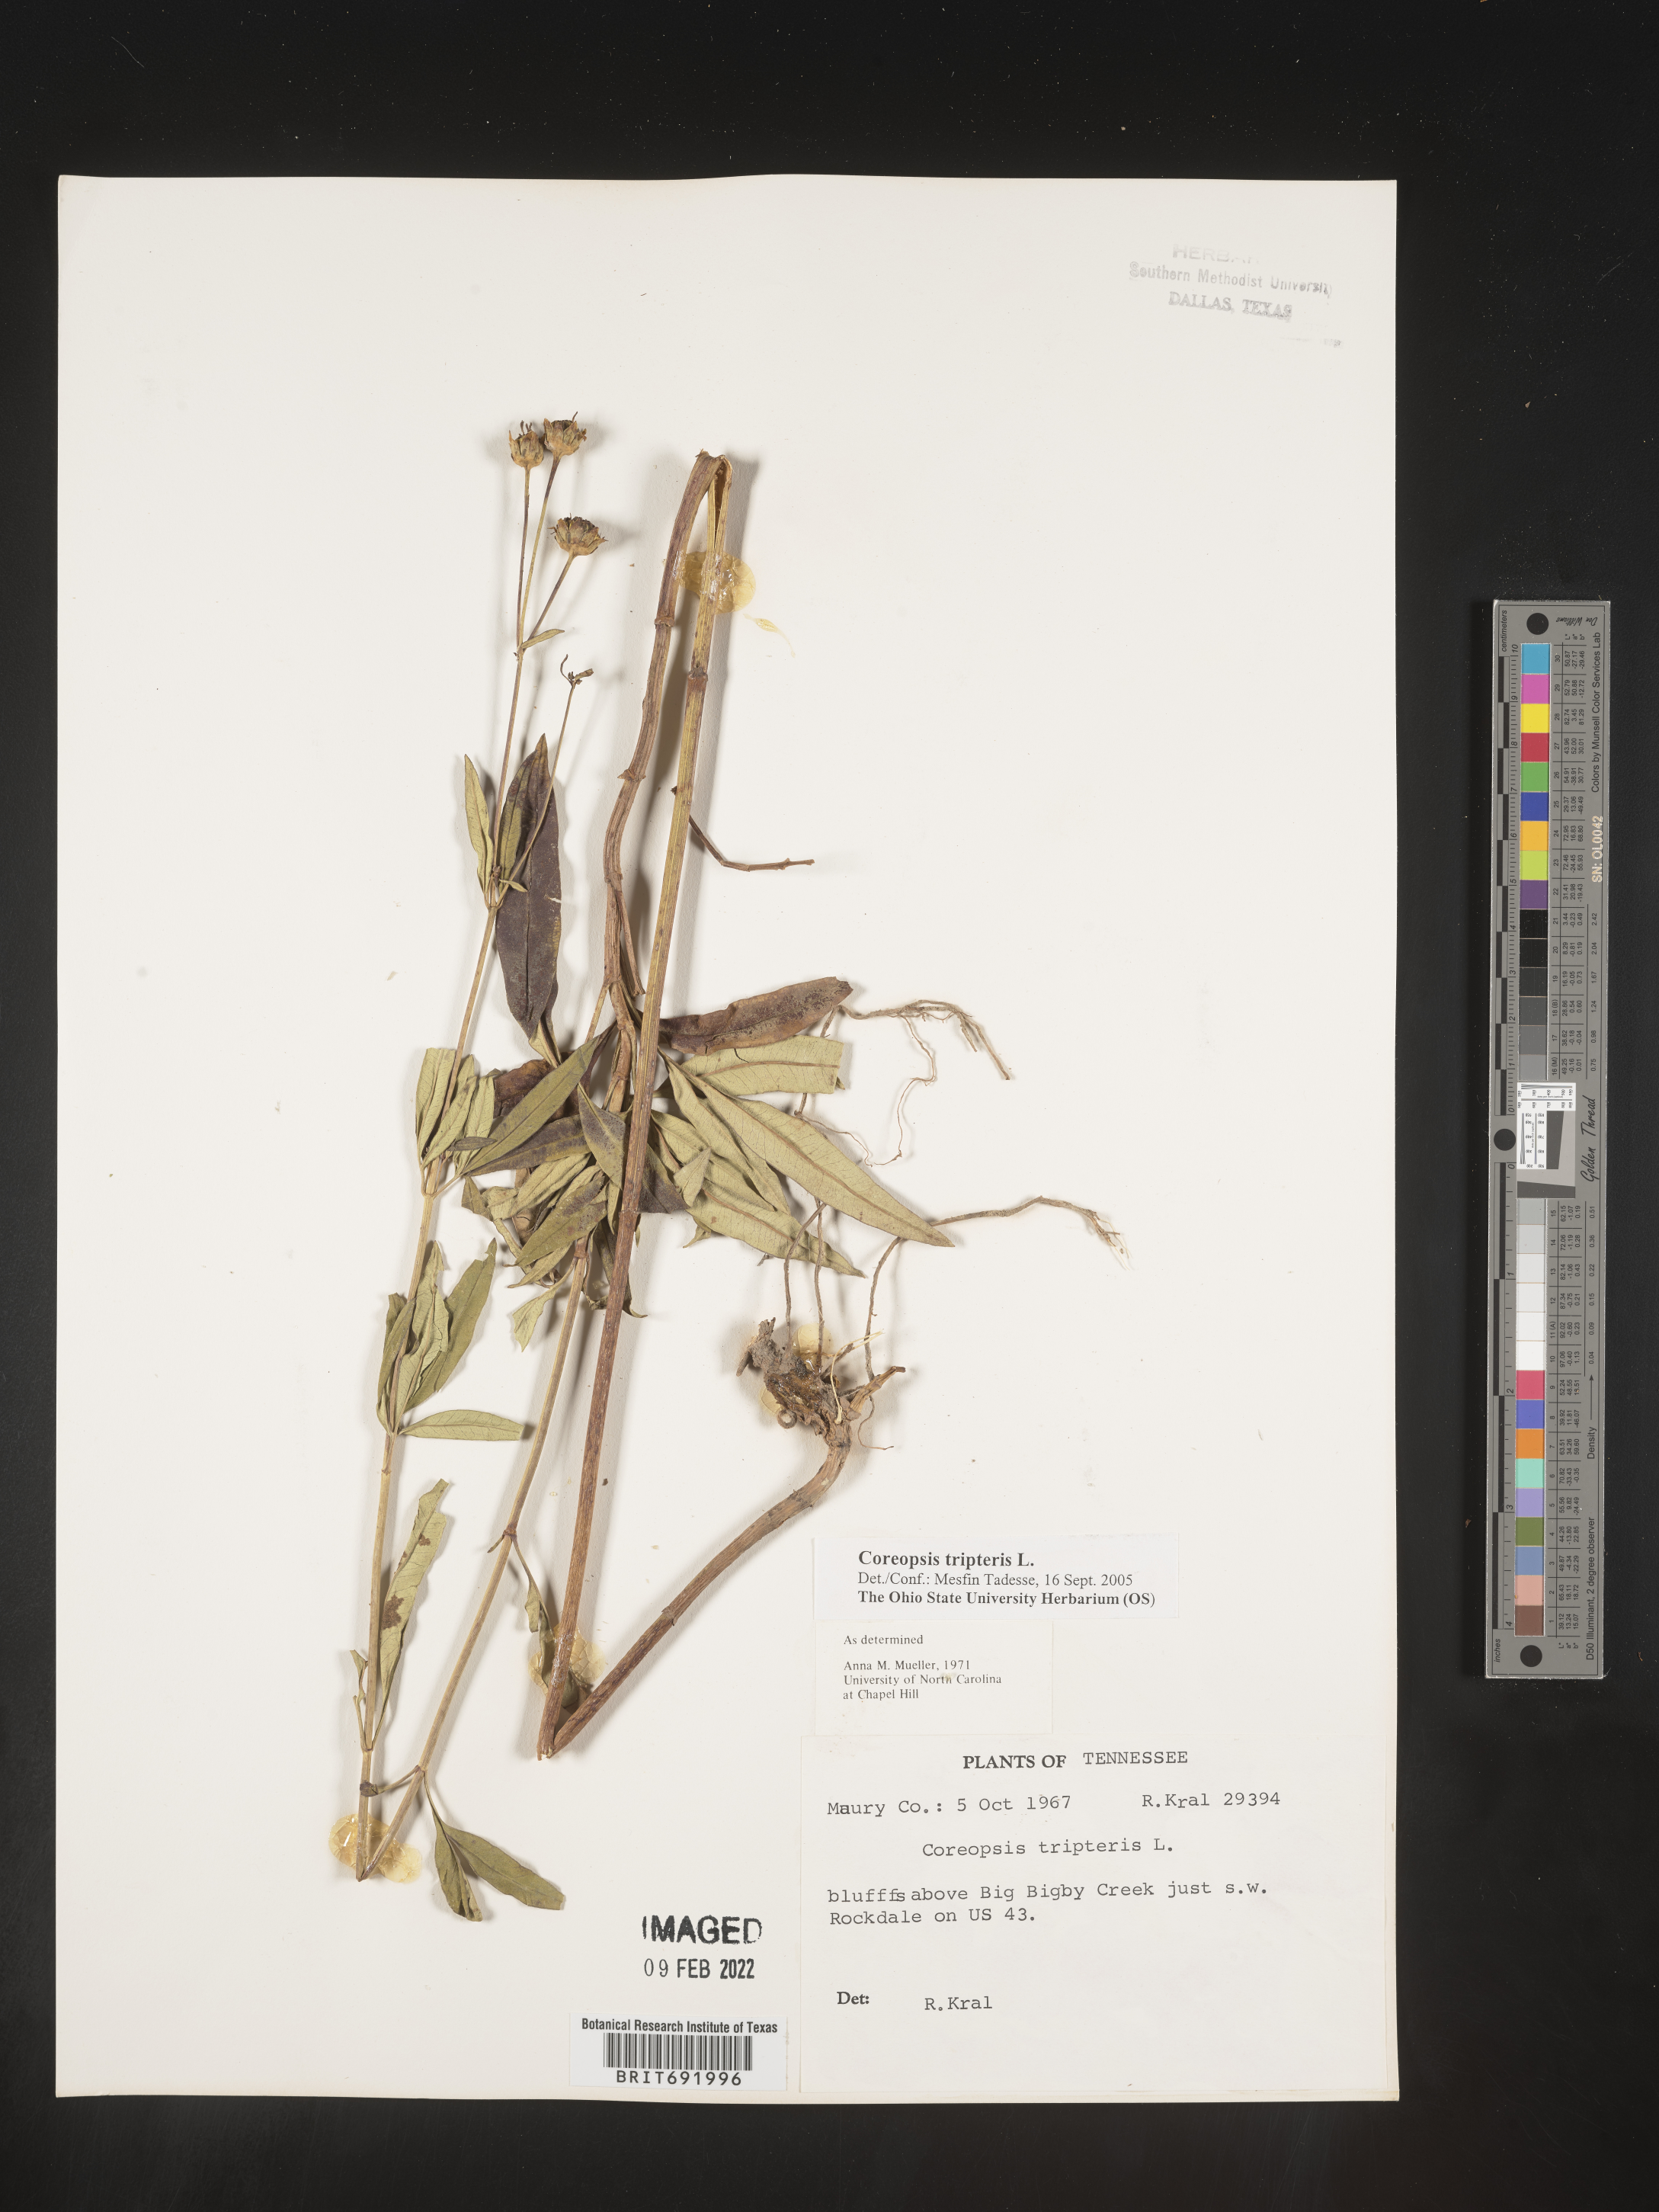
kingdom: Plantae
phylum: Tracheophyta
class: Magnoliopsida
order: Asterales
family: Asteraceae
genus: Coreopsis
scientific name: Coreopsis tripteris
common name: Tall coreopsis
